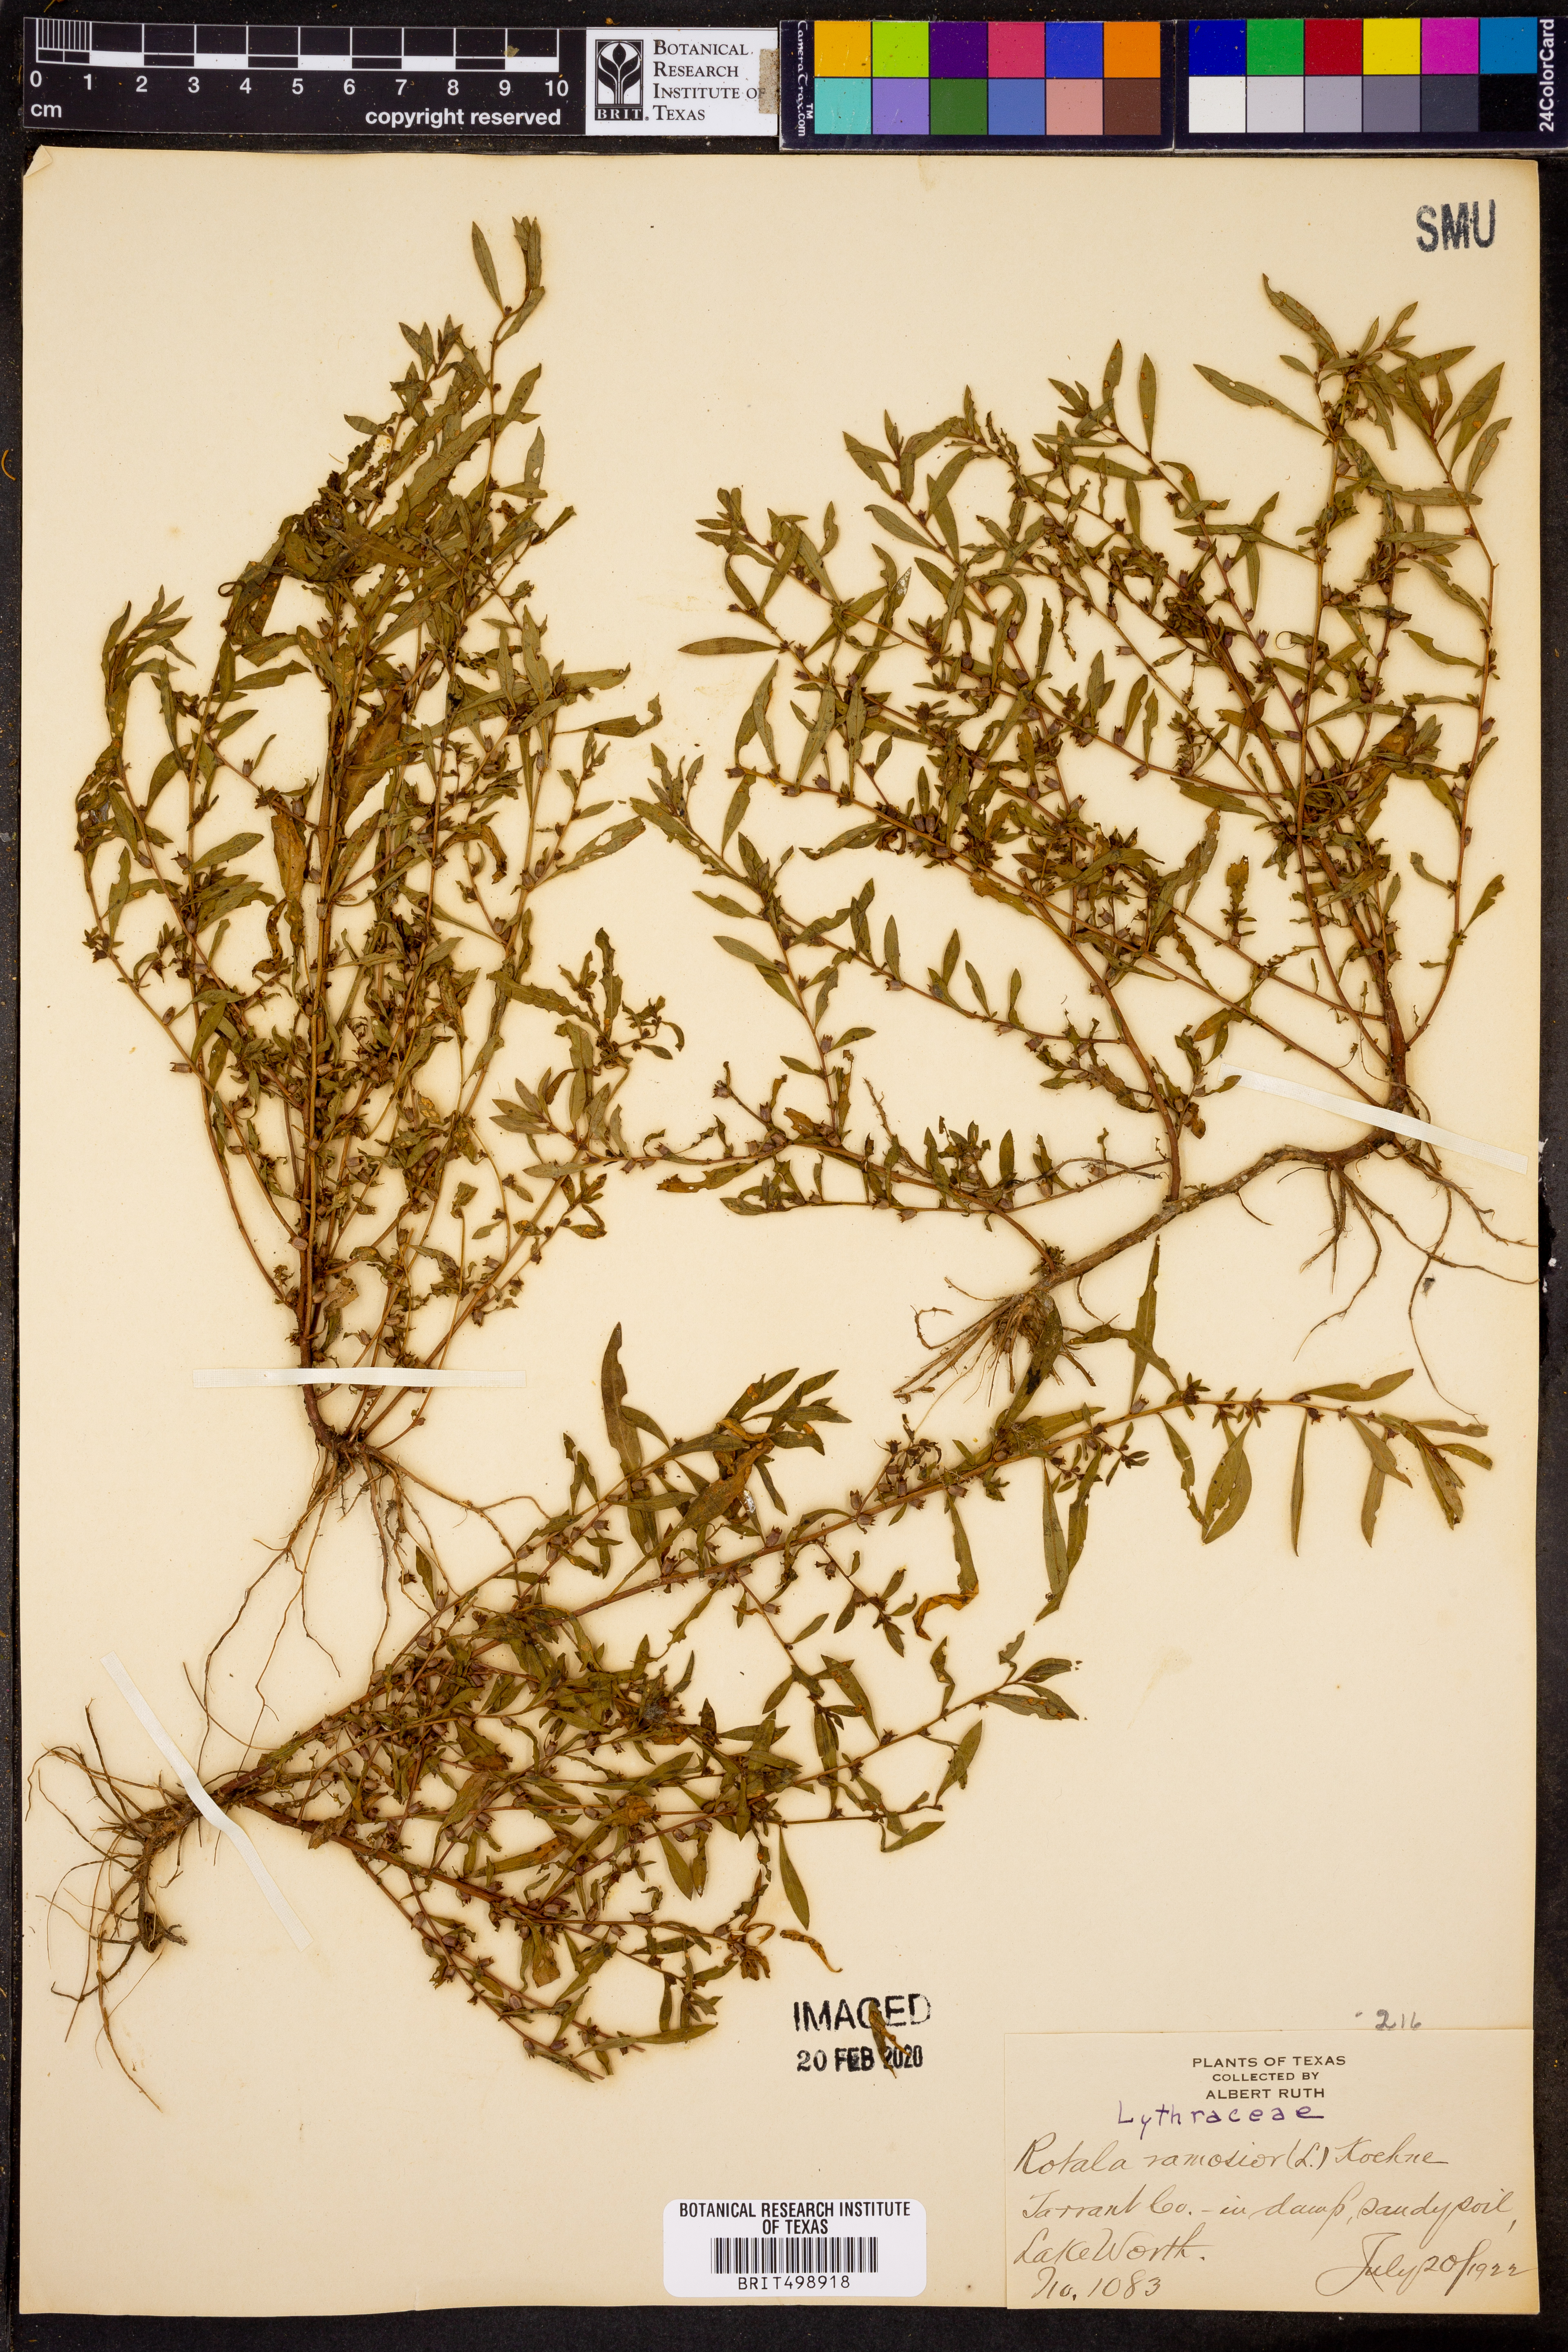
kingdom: Plantae
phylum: Tracheophyta
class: Magnoliopsida
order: Myrtales
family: Lythraceae
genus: Rotala
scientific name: Rotala ramosior
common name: Lowland rotala
